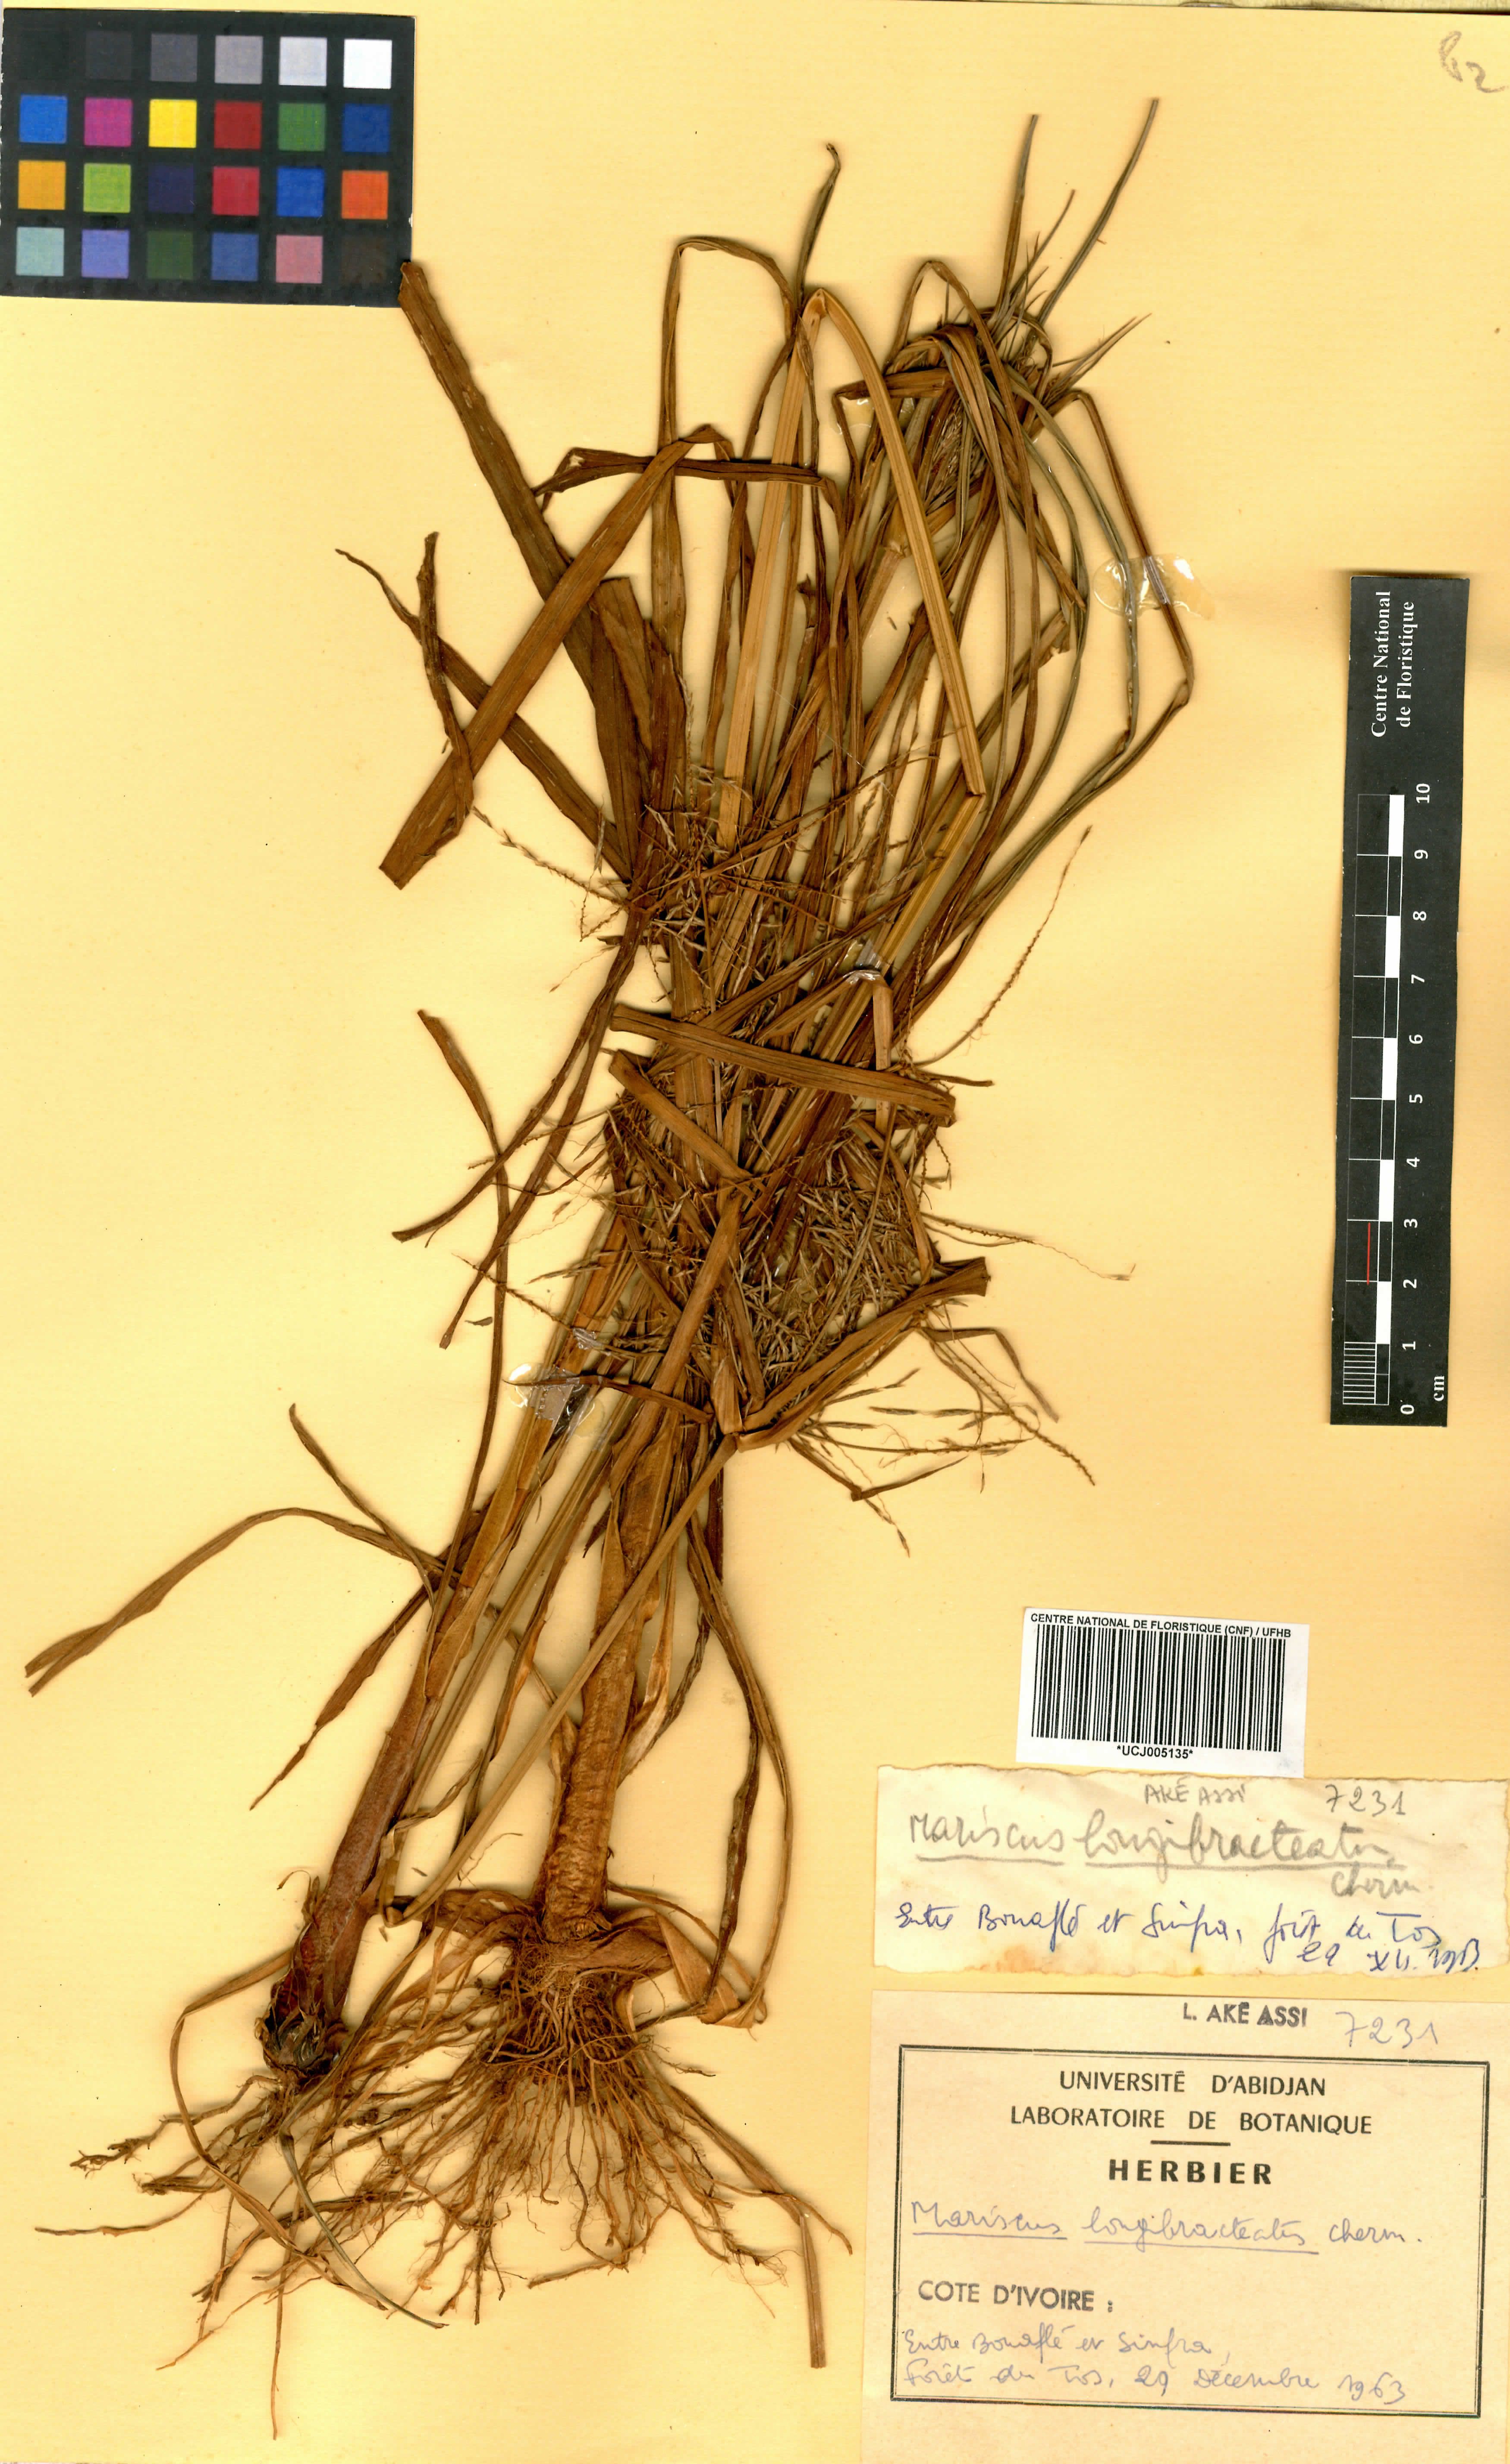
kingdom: Plantae
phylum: Tracheophyta
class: Liliopsida
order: Poales
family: Cyperaceae
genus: Cyperus
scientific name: Cyperus distans
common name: Slender cyperus
